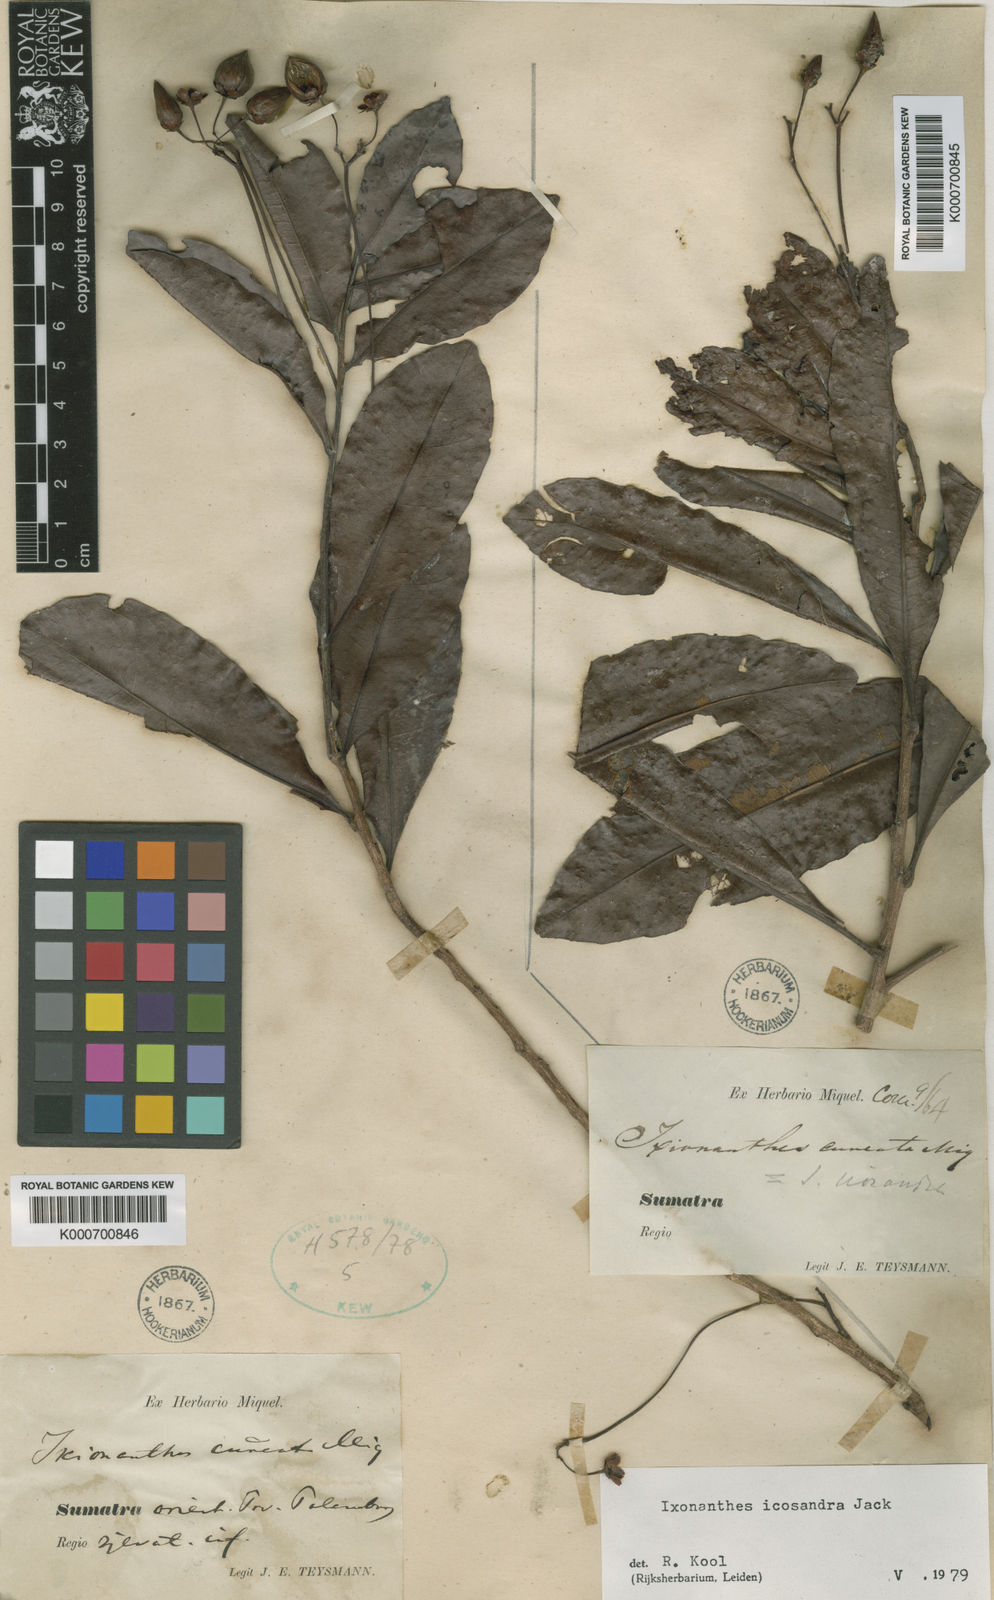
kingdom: Plantae
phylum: Tracheophyta
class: Magnoliopsida
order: Malpighiales
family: Ixonanthaceae
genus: Ixonanthes
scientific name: Ixonanthes icosandra
